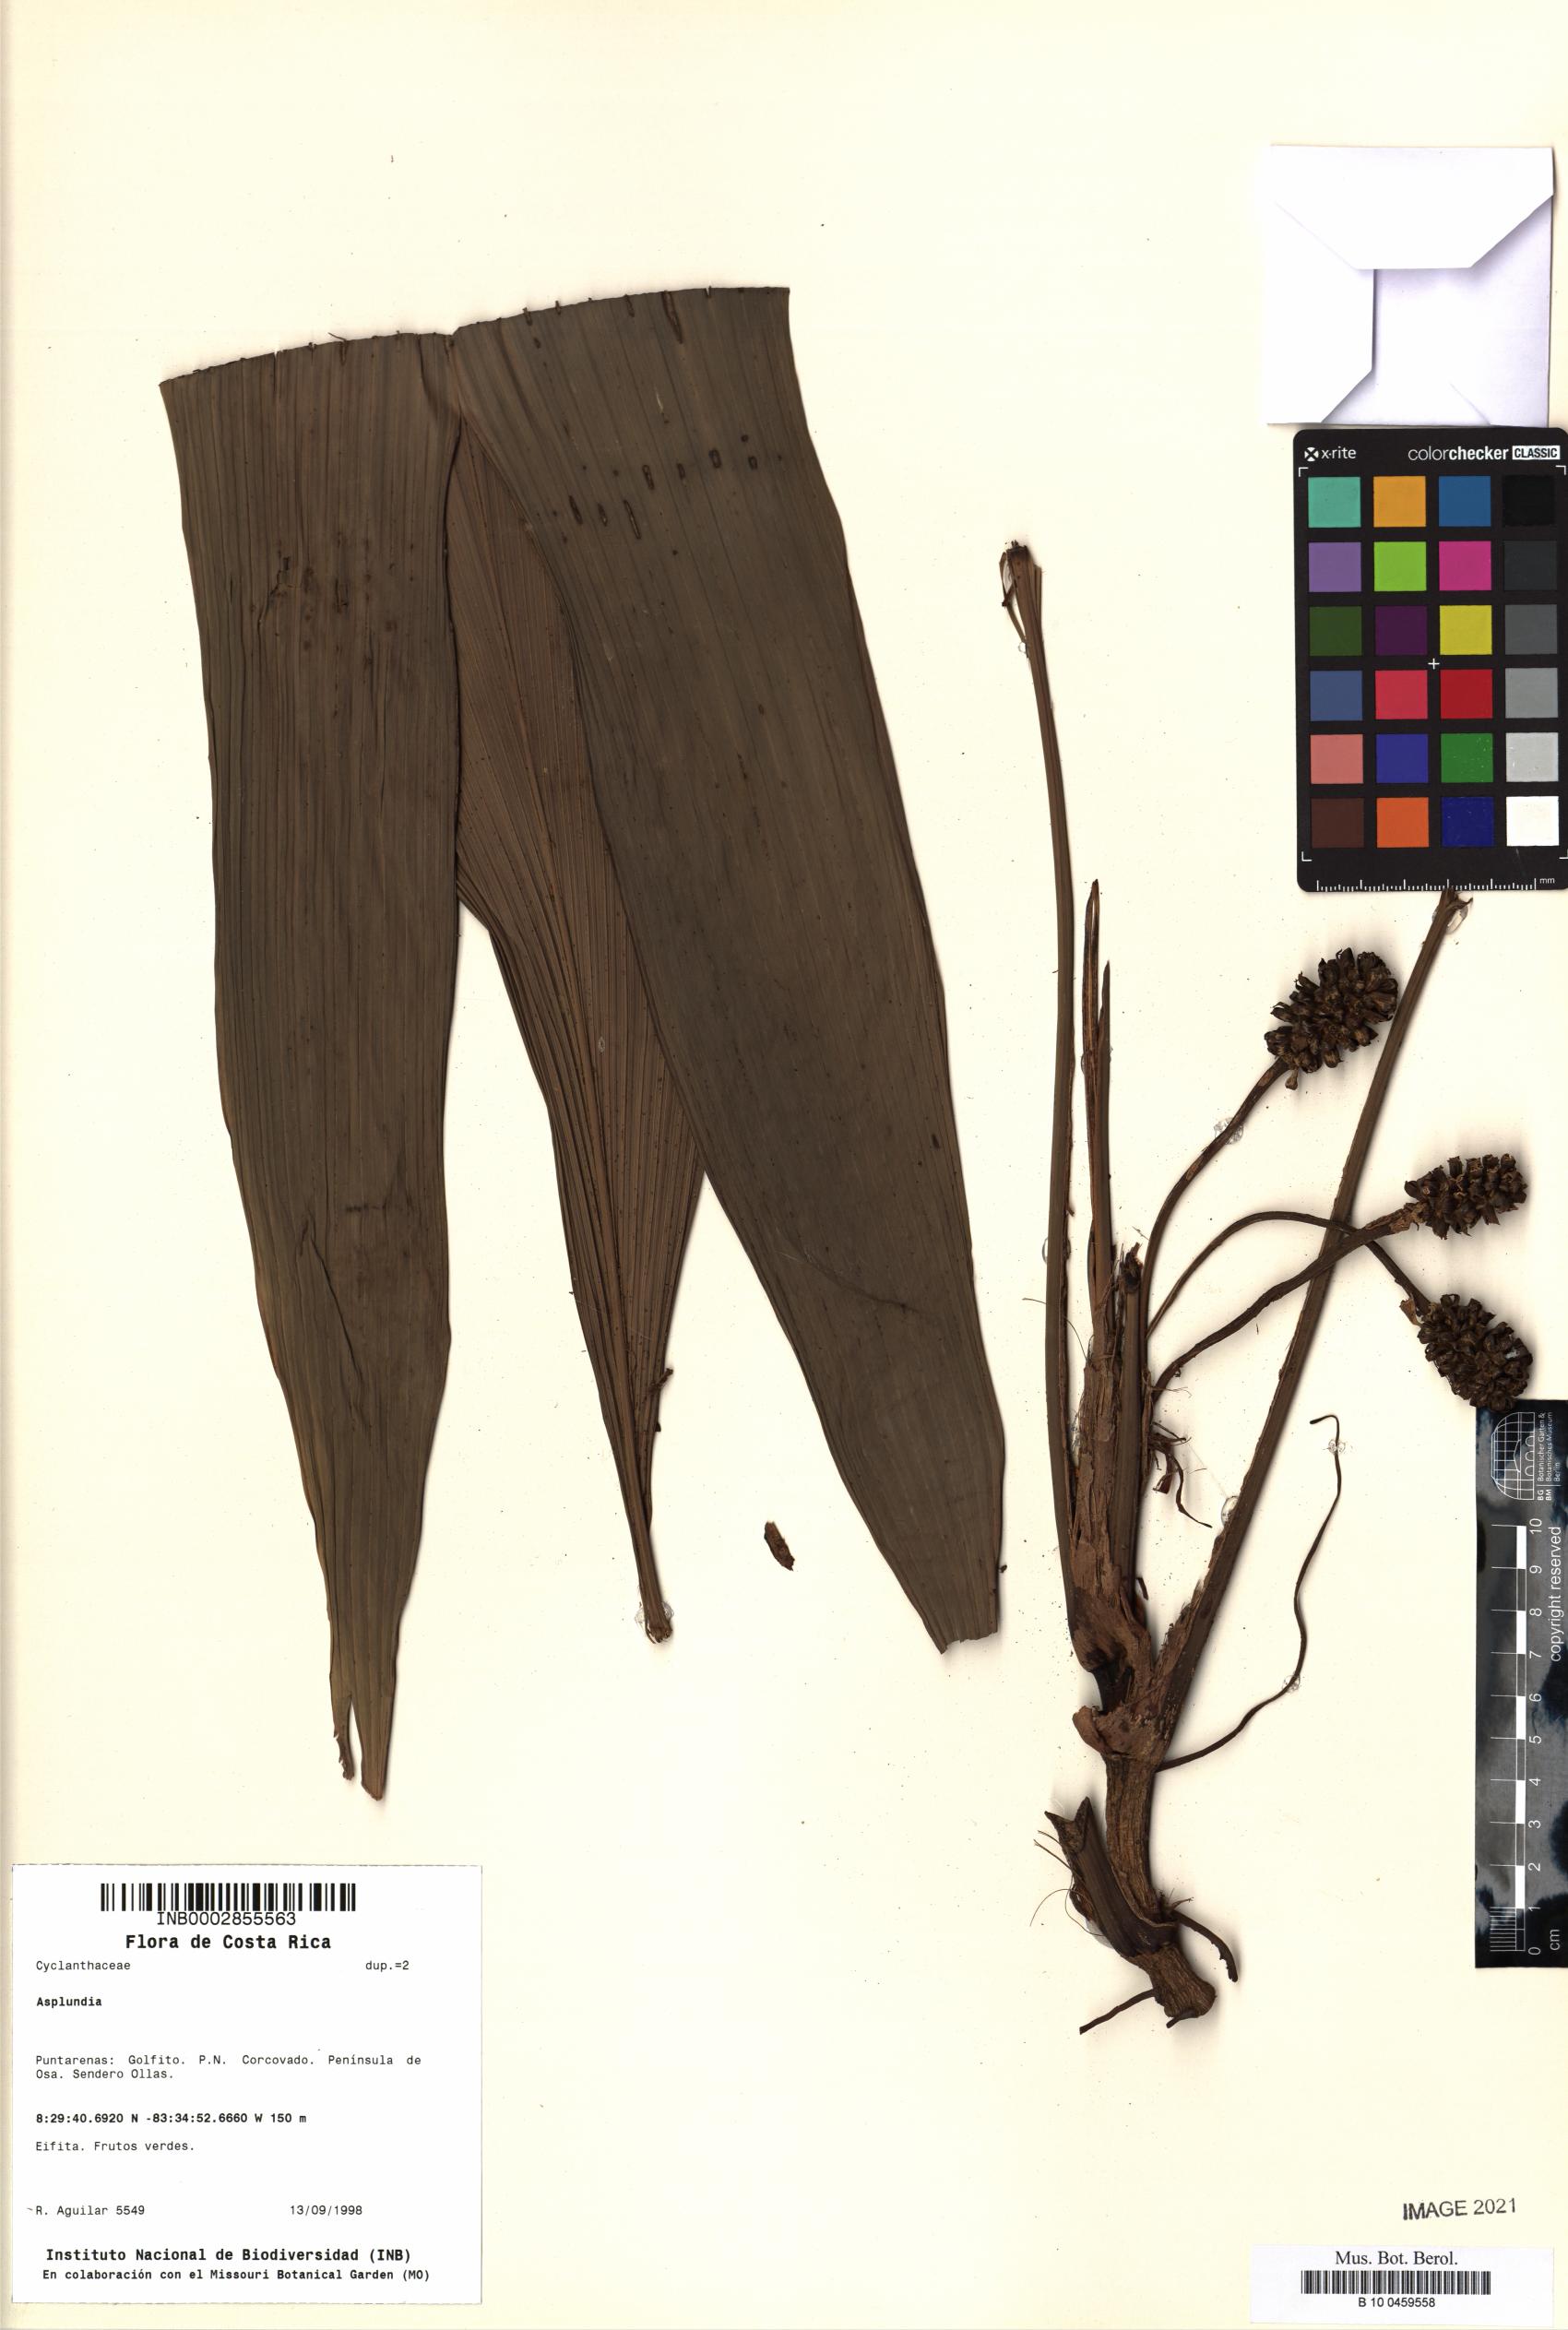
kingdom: Plantae
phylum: Tracheophyta
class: Liliopsida
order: Pandanales
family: Cyclanthaceae
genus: Asplundia
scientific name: Asplundia
